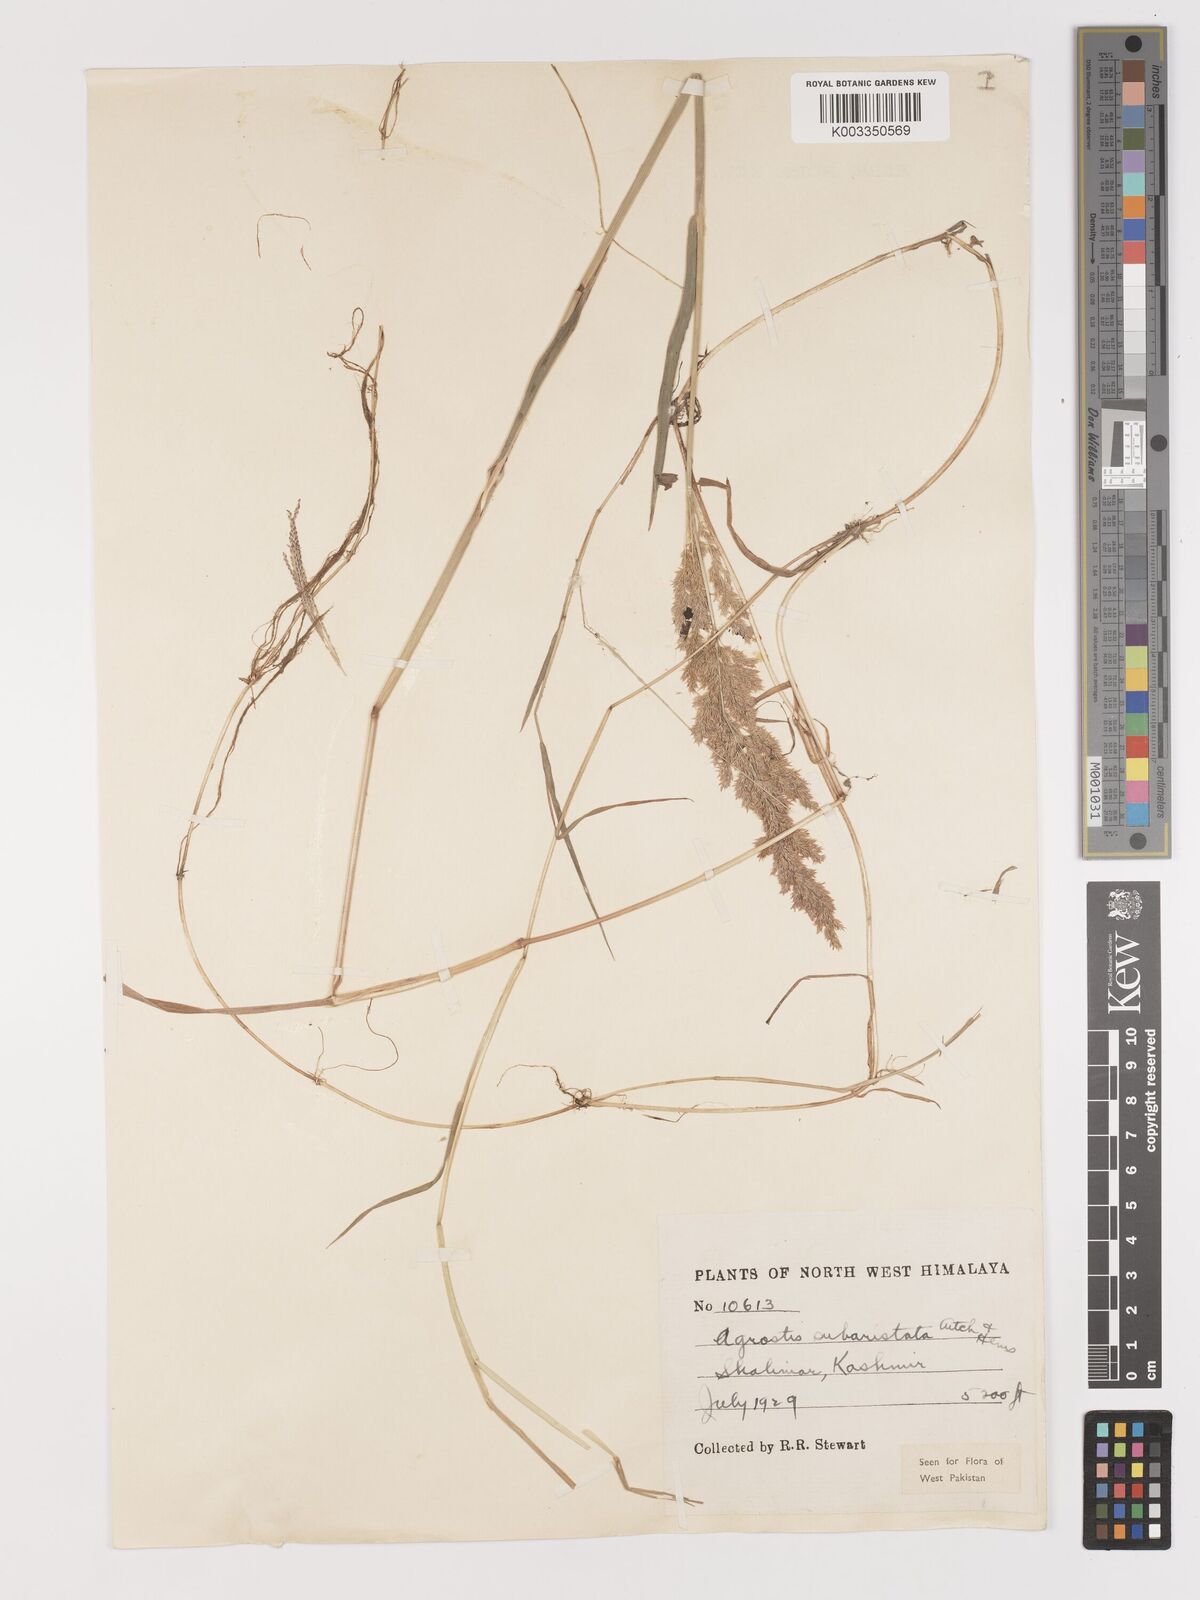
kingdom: Plantae
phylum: Tracheophyta
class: Liliopsida
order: Poales
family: Poaceae
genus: Agropogon
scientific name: Agropogon lutosus
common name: Coast agropogon
